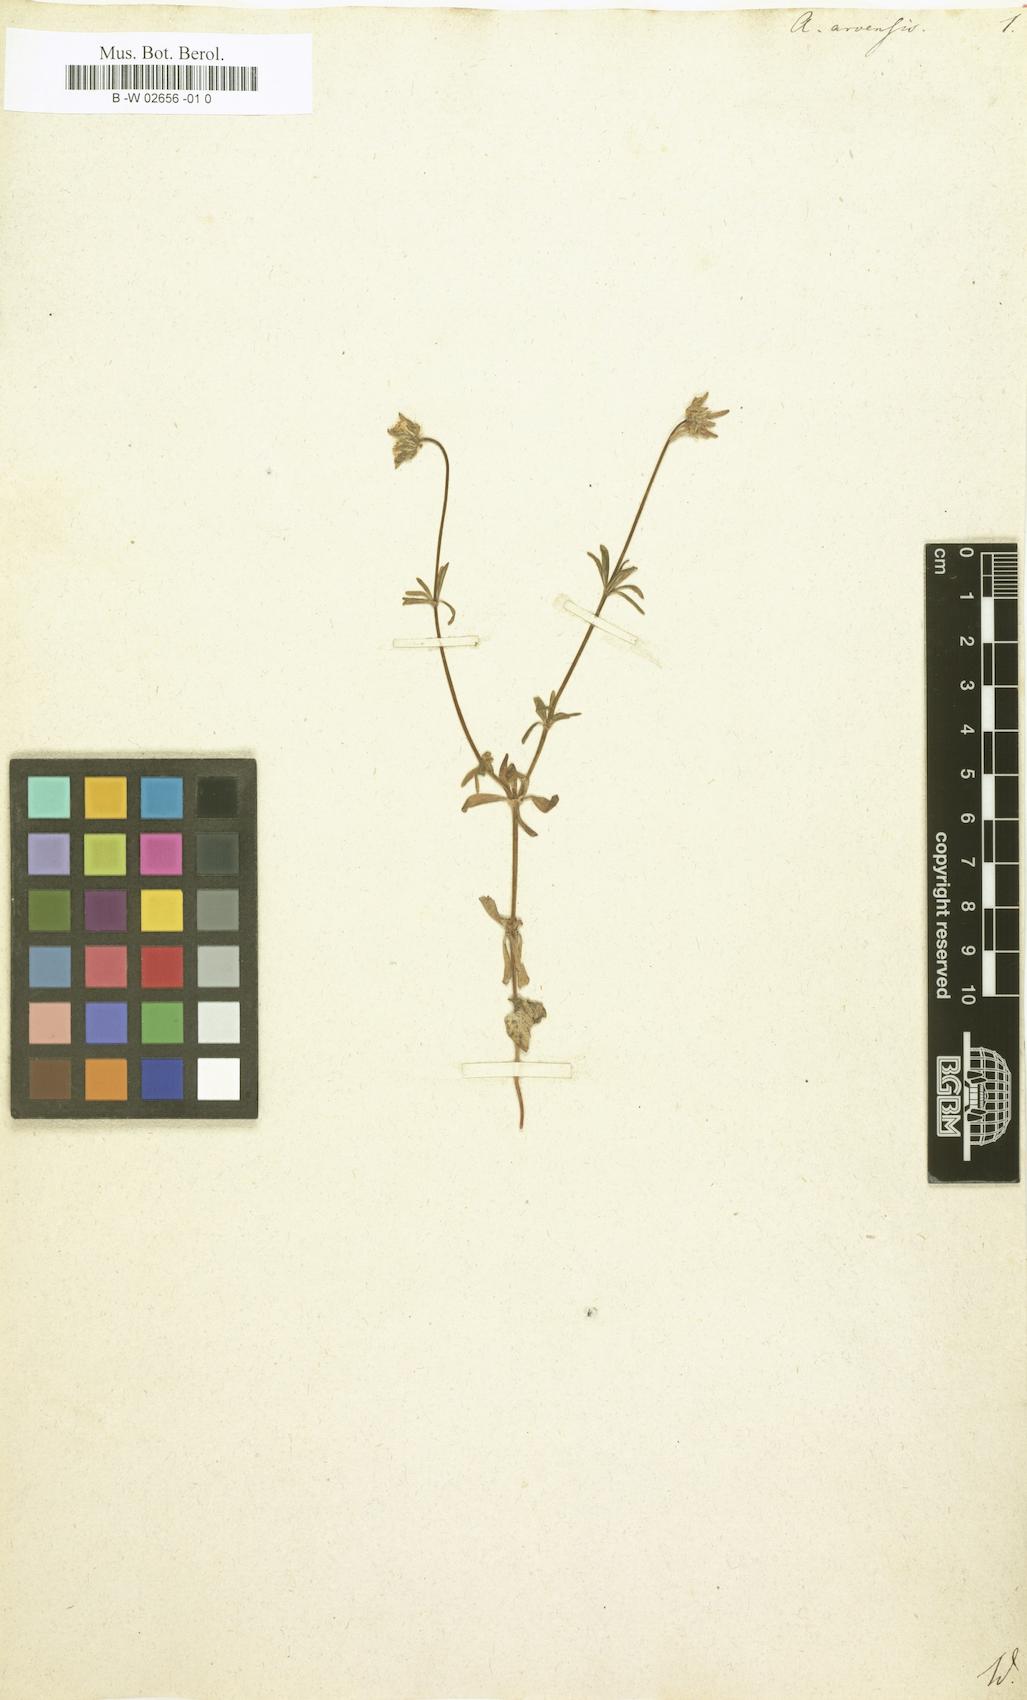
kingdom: Plantae
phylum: Tracheophyta
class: Magnoliopsida
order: Gentianales
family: Rubiaceae
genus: Asperula
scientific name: Asperula arvensis
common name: Blue woodruff
